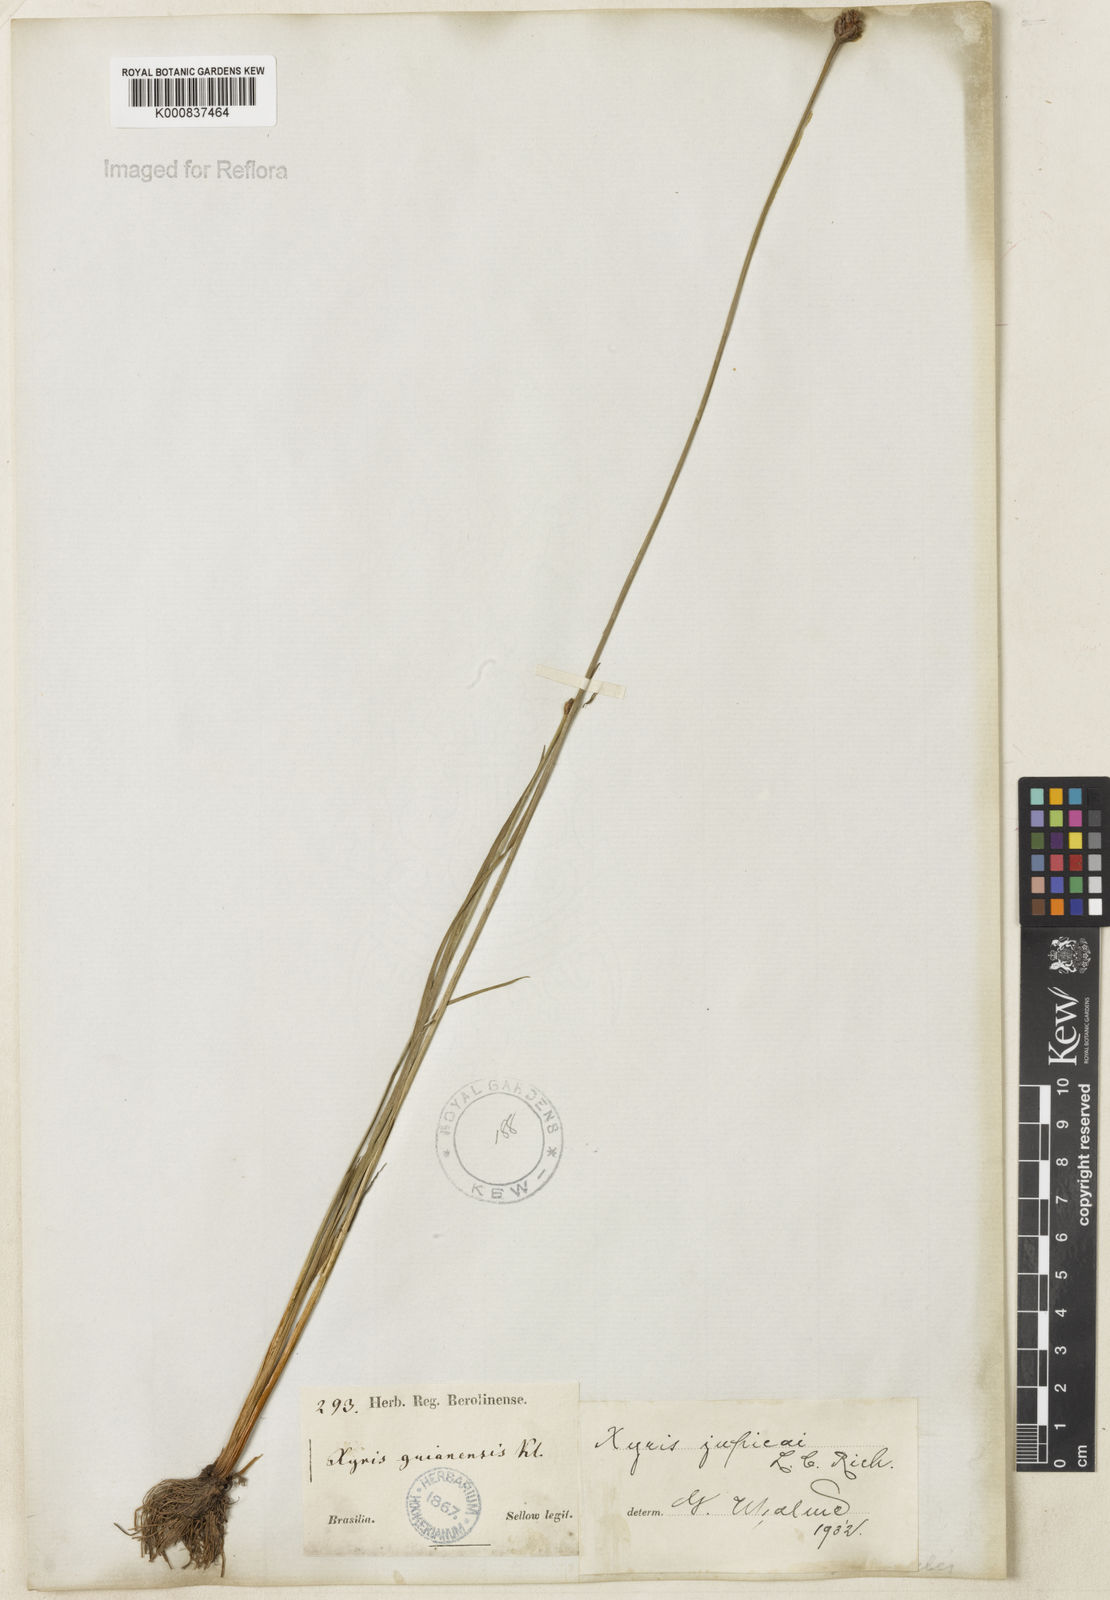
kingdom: Plantae
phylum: Tracheophyta
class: Liliopsida
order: Poales
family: Xyridaceae
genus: Xyris
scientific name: Xyris jupicai
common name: Richard's yelloweyed grass
